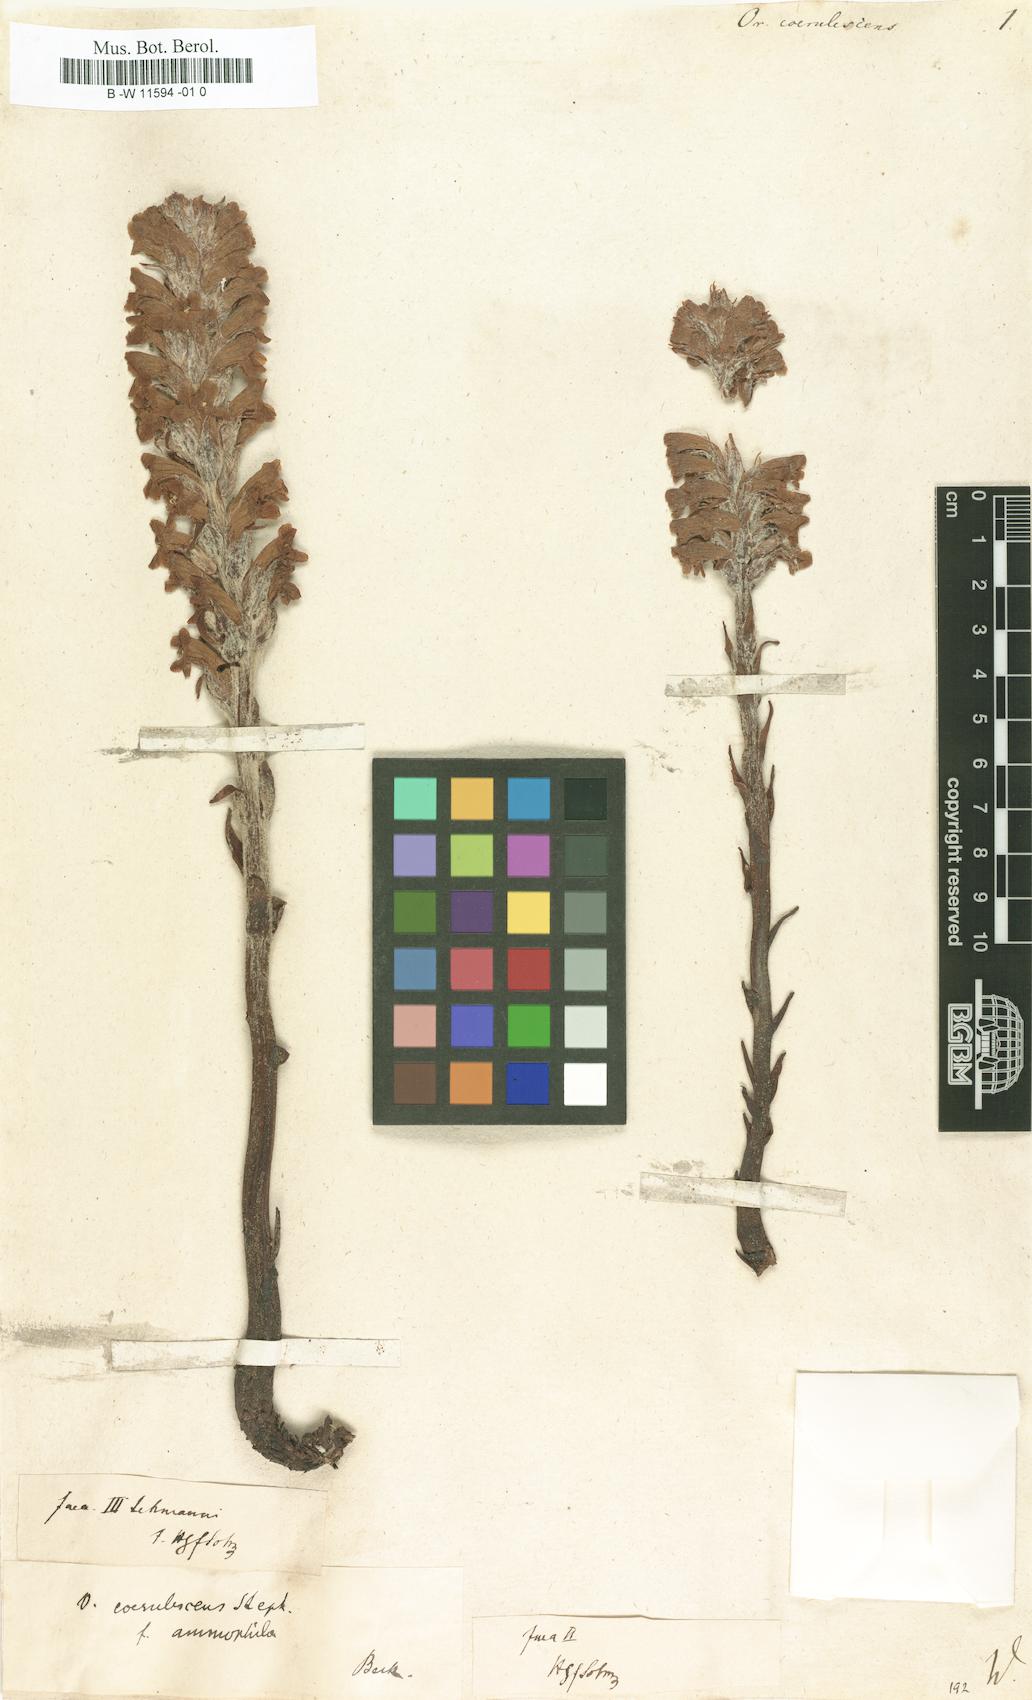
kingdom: Plantae
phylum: Tracheophyta
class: Magnoliopsida
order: Lamiales
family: Orobanchaceae
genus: Orobanche
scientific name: Orobanche coerulescens
